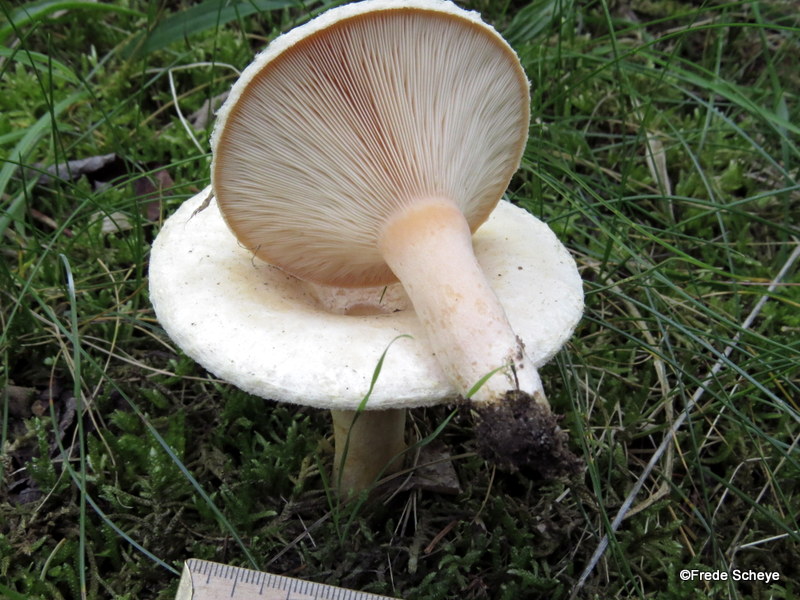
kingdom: Fungi
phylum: Basidiomycota
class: Agaricomycetes
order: Russulales
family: Russulaceae
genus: Lactarius
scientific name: Lactarius pubescens
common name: dunet mælkehat
